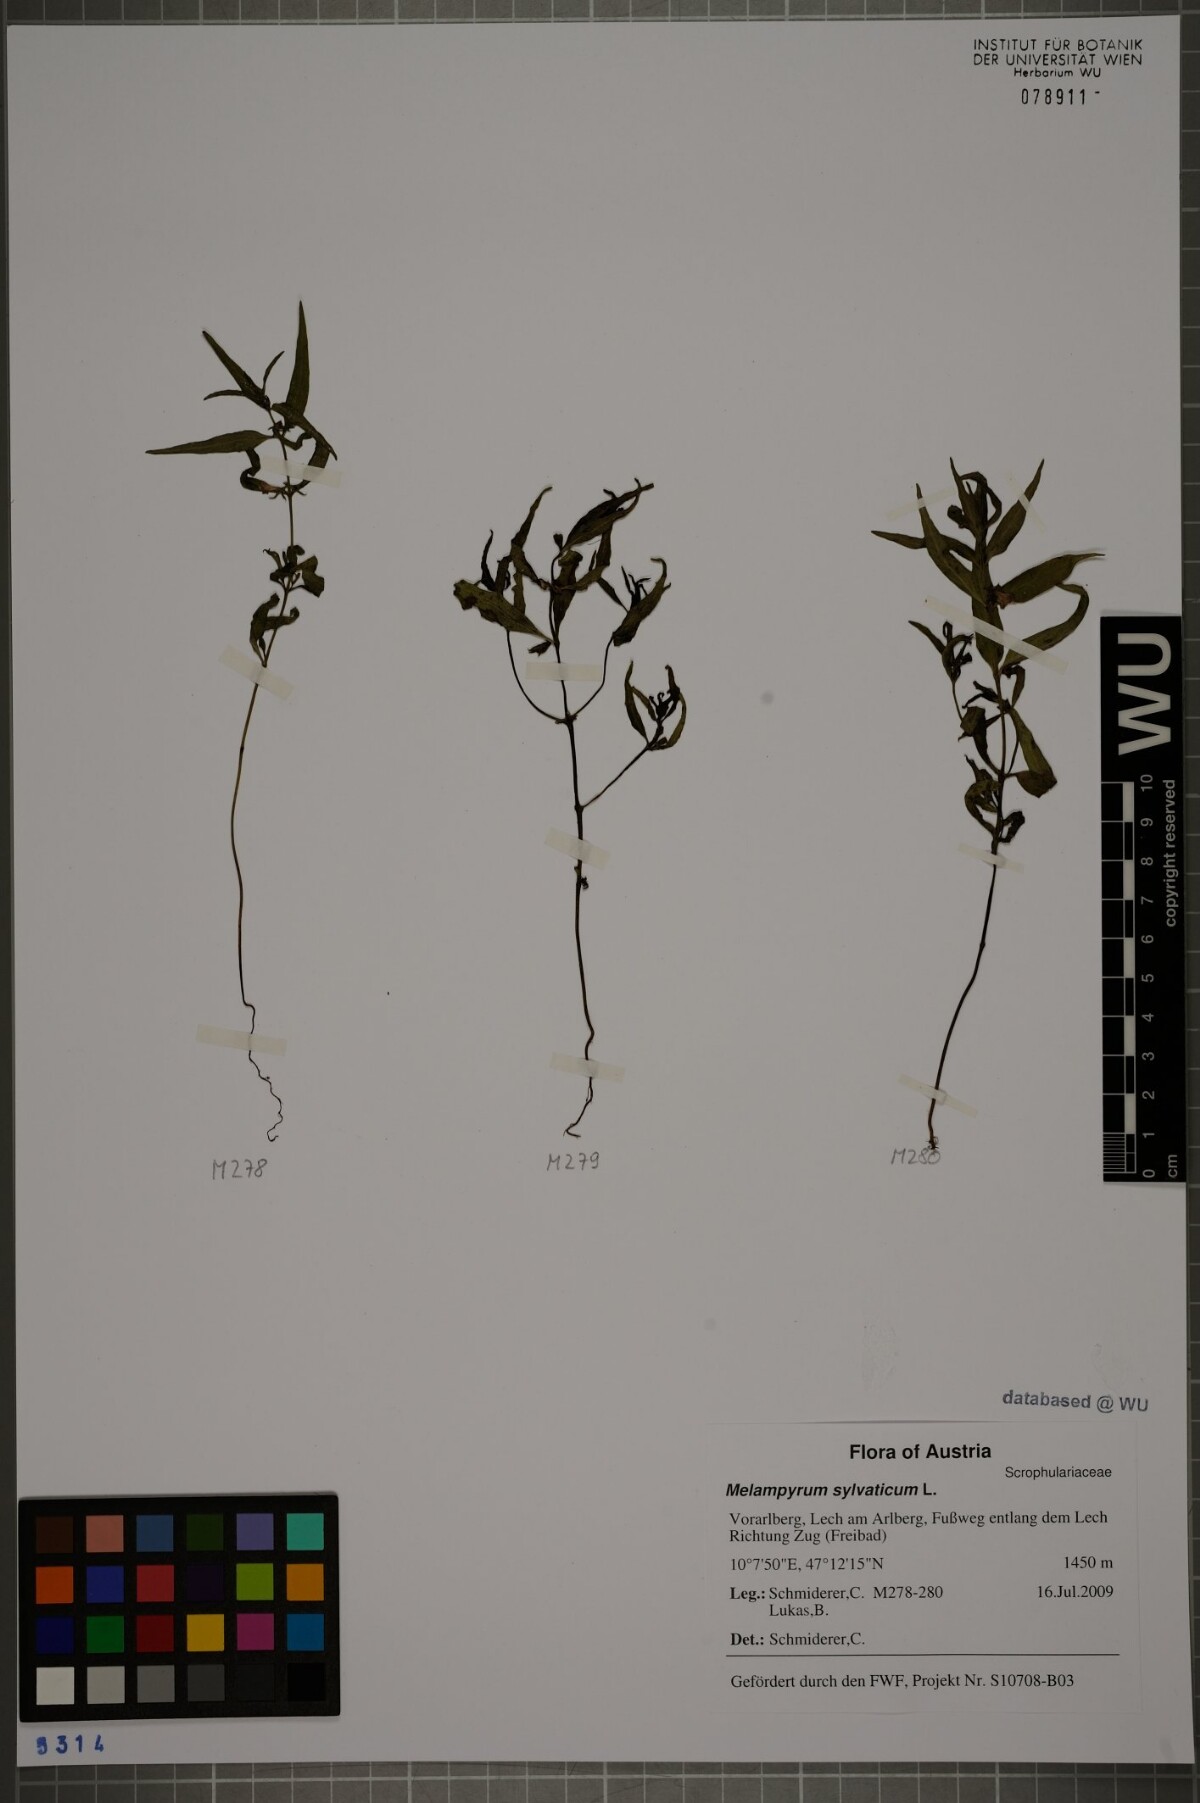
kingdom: Plantae
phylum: Tracheophyta
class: Magnoliopsida
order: Lamiales
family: Orobanchaceae
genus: Melampyrum
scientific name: Melampyrum sylvaticum
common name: Small cow-wheat
